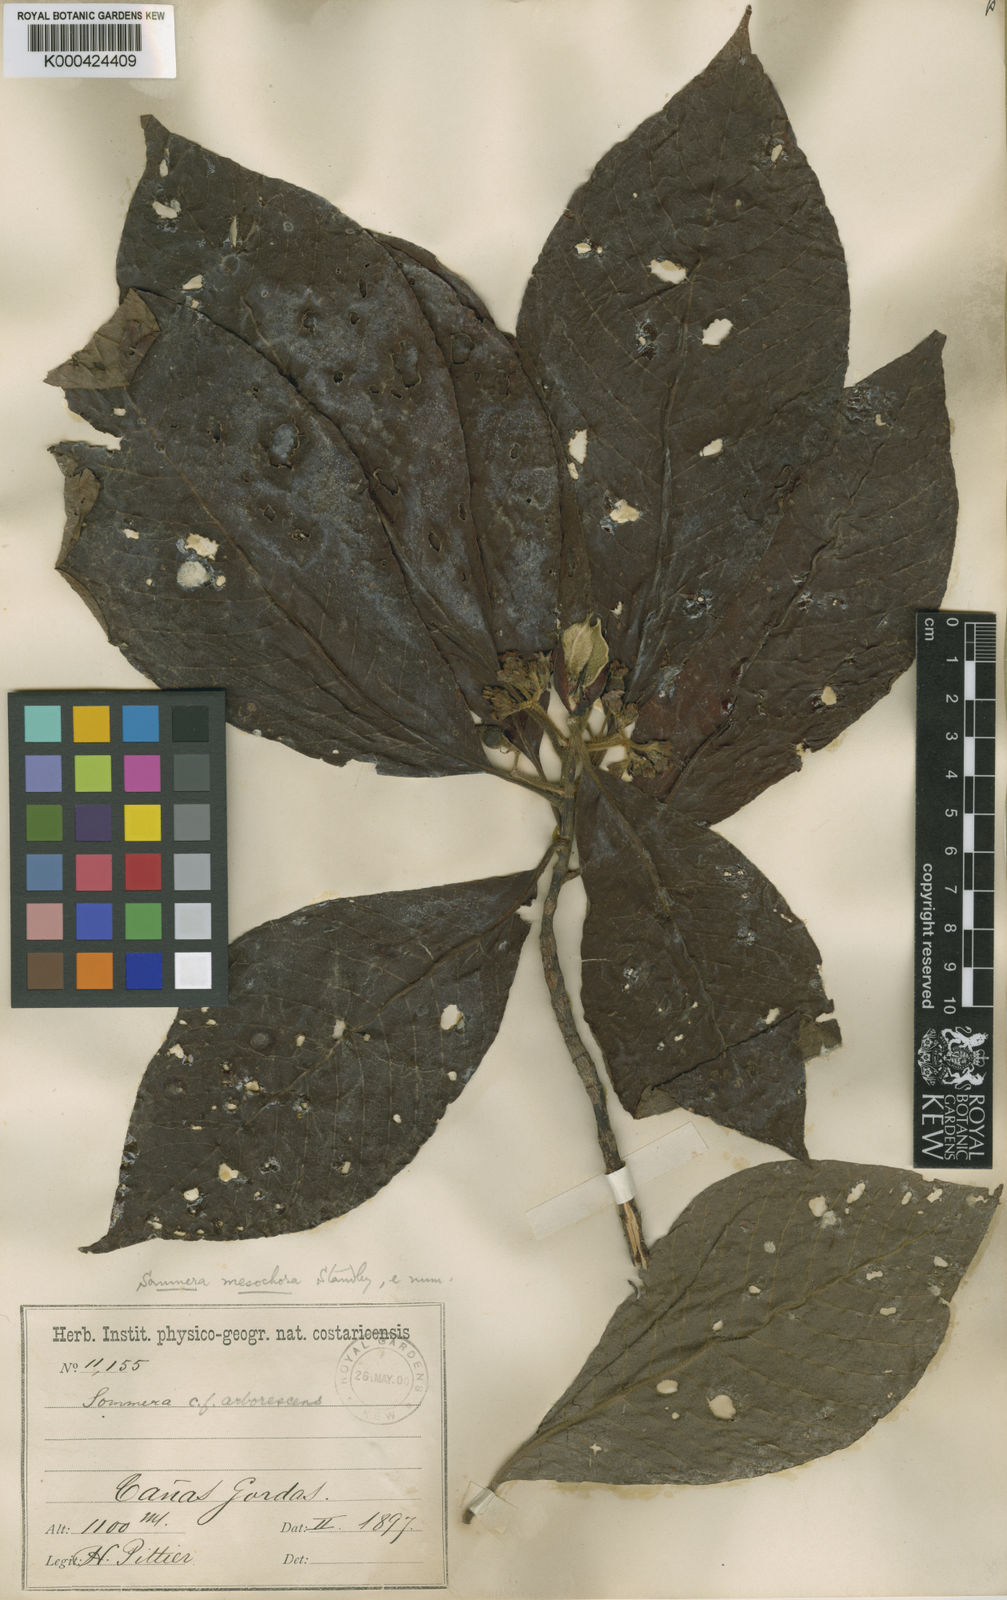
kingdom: Plantae
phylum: Tracheophyta
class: Magnoliopsida
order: Gentianales
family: Rubiaceae
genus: Sommera
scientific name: Sommera donnell-smithii
